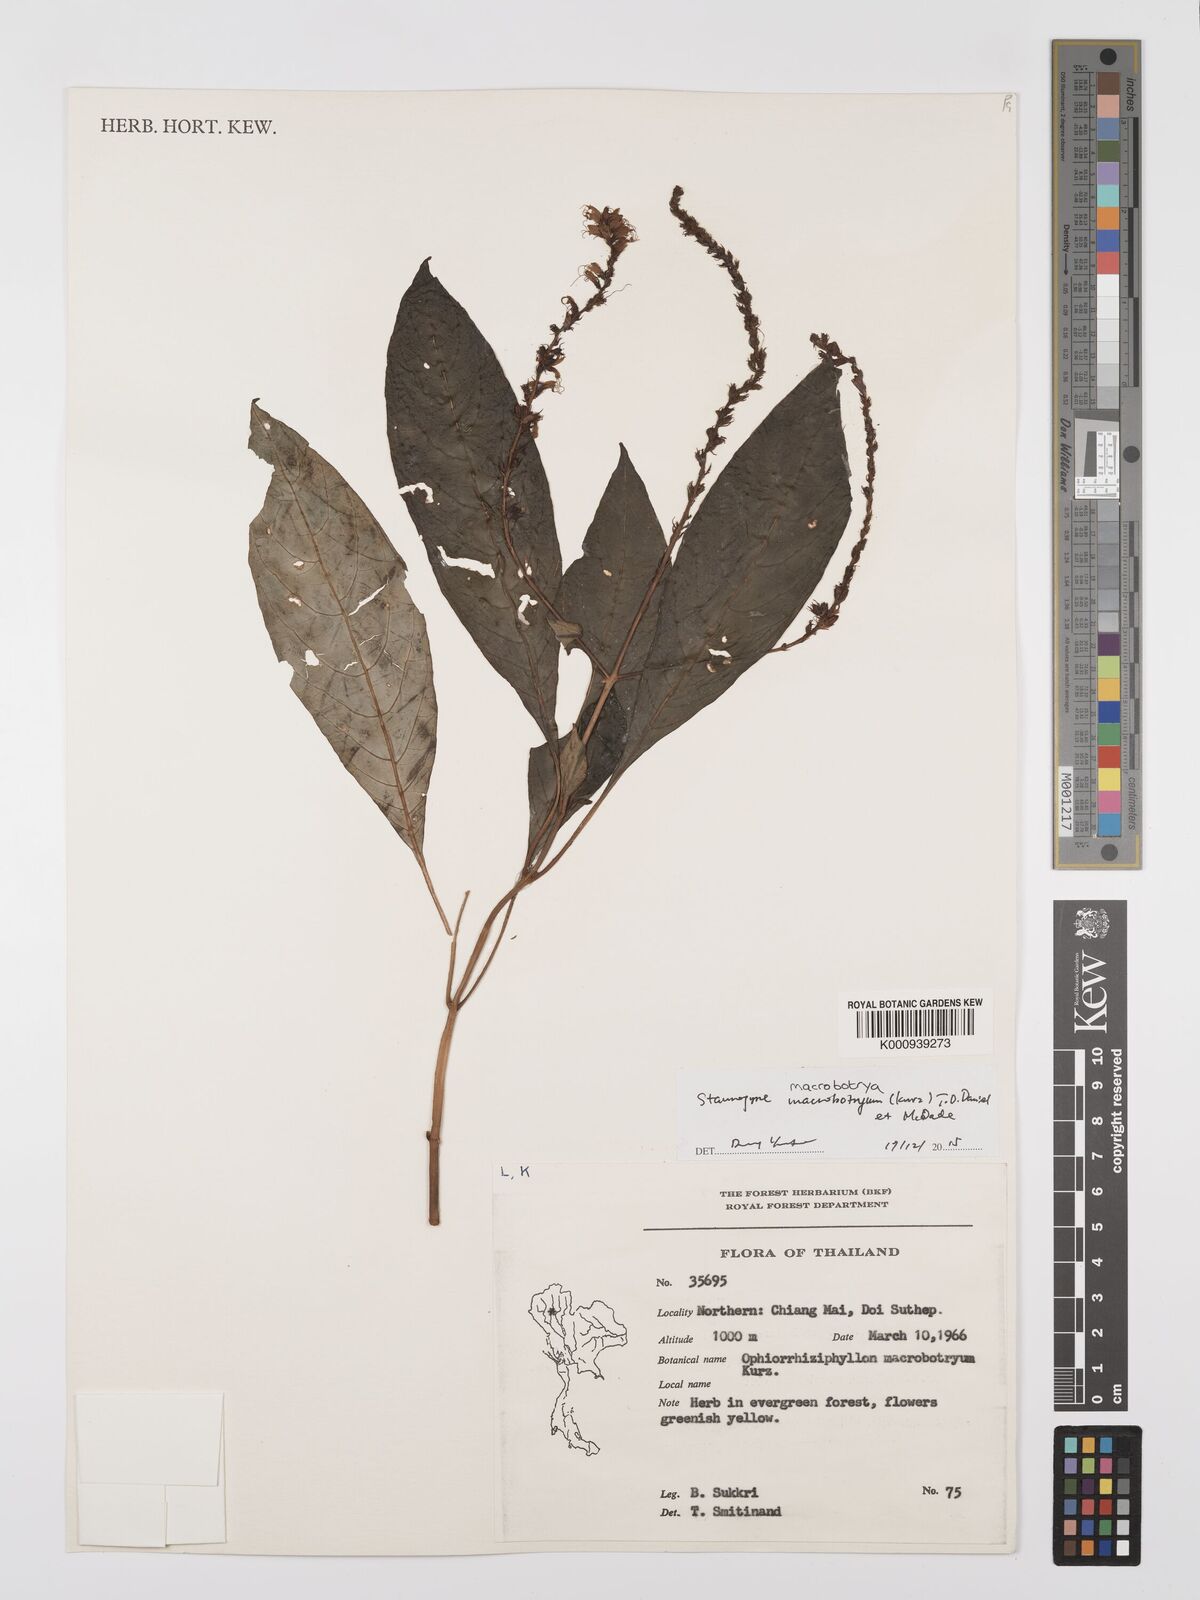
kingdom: Plantae
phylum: Tracheophyta
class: Magnoliopsida
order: Lamiales
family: Acanthaceae
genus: Staurogyne
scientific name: Staurogyne macrobotrya
